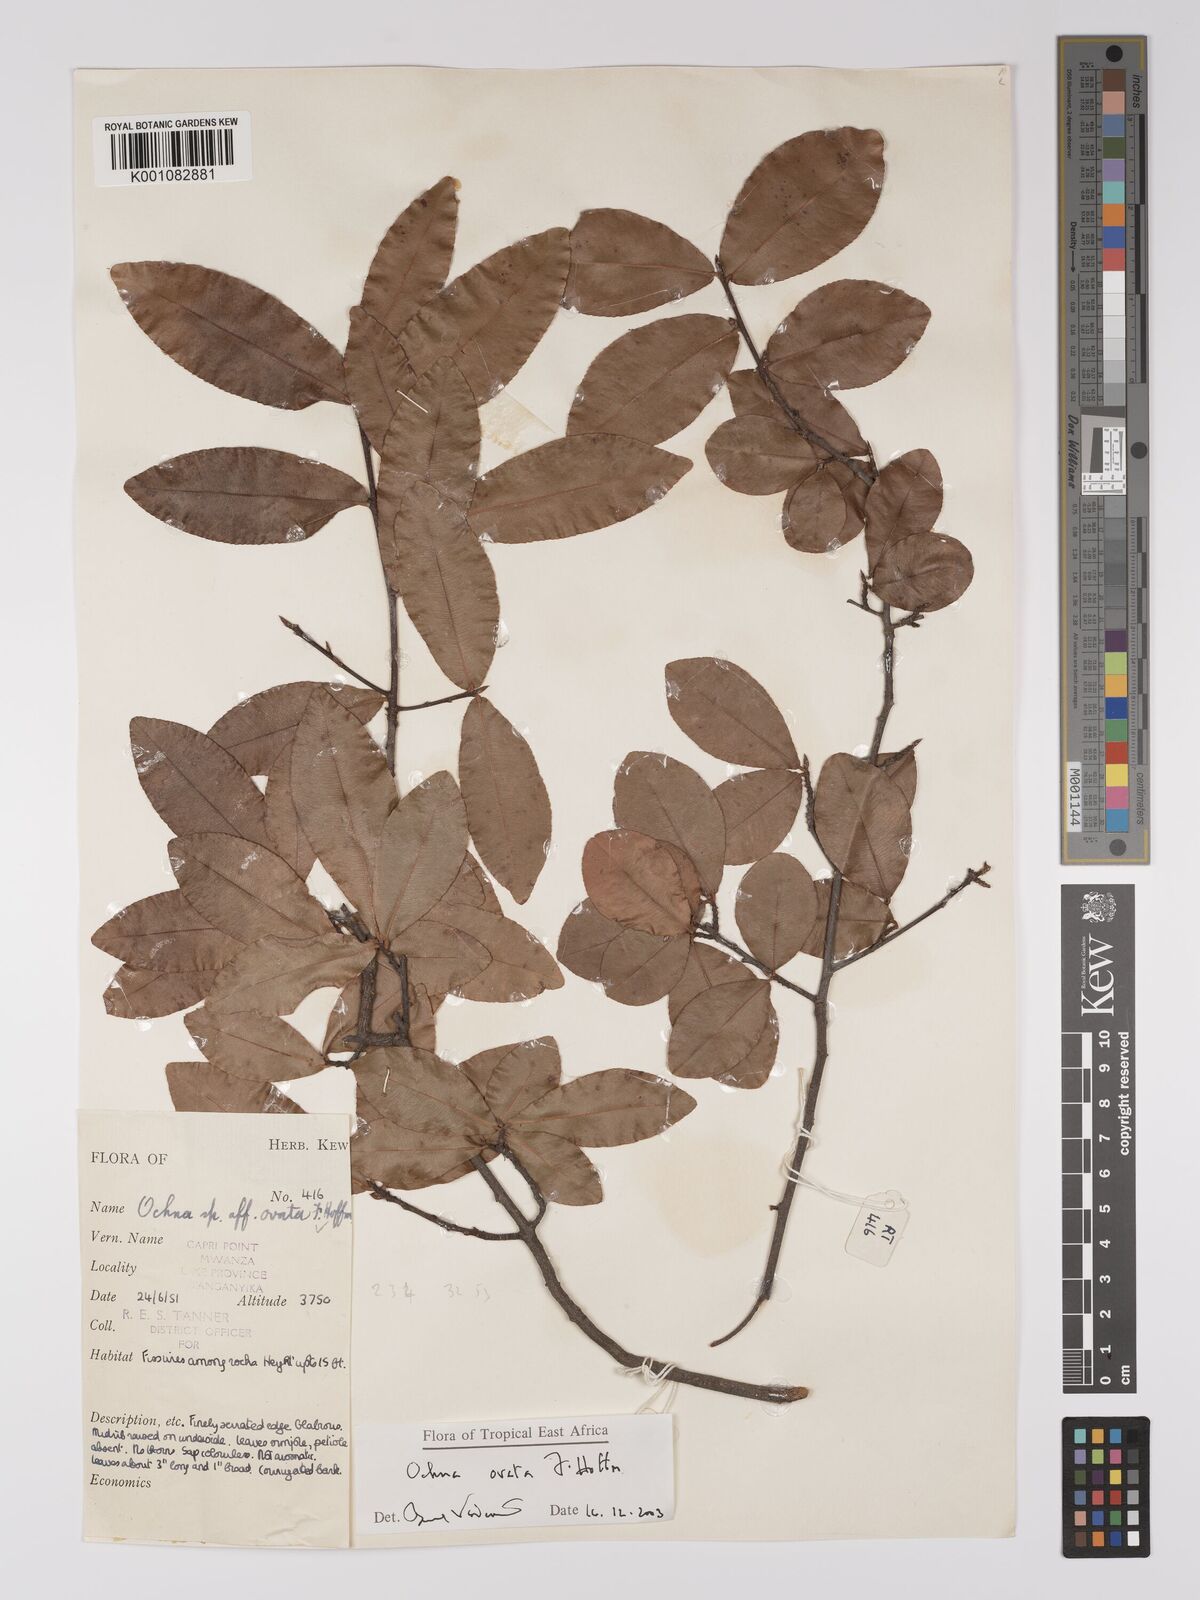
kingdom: Plantae
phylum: Tracheophyta
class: Magnoliopsida
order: Malpighiales
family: Ochnaceae
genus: Ochna
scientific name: Ochna ovata
